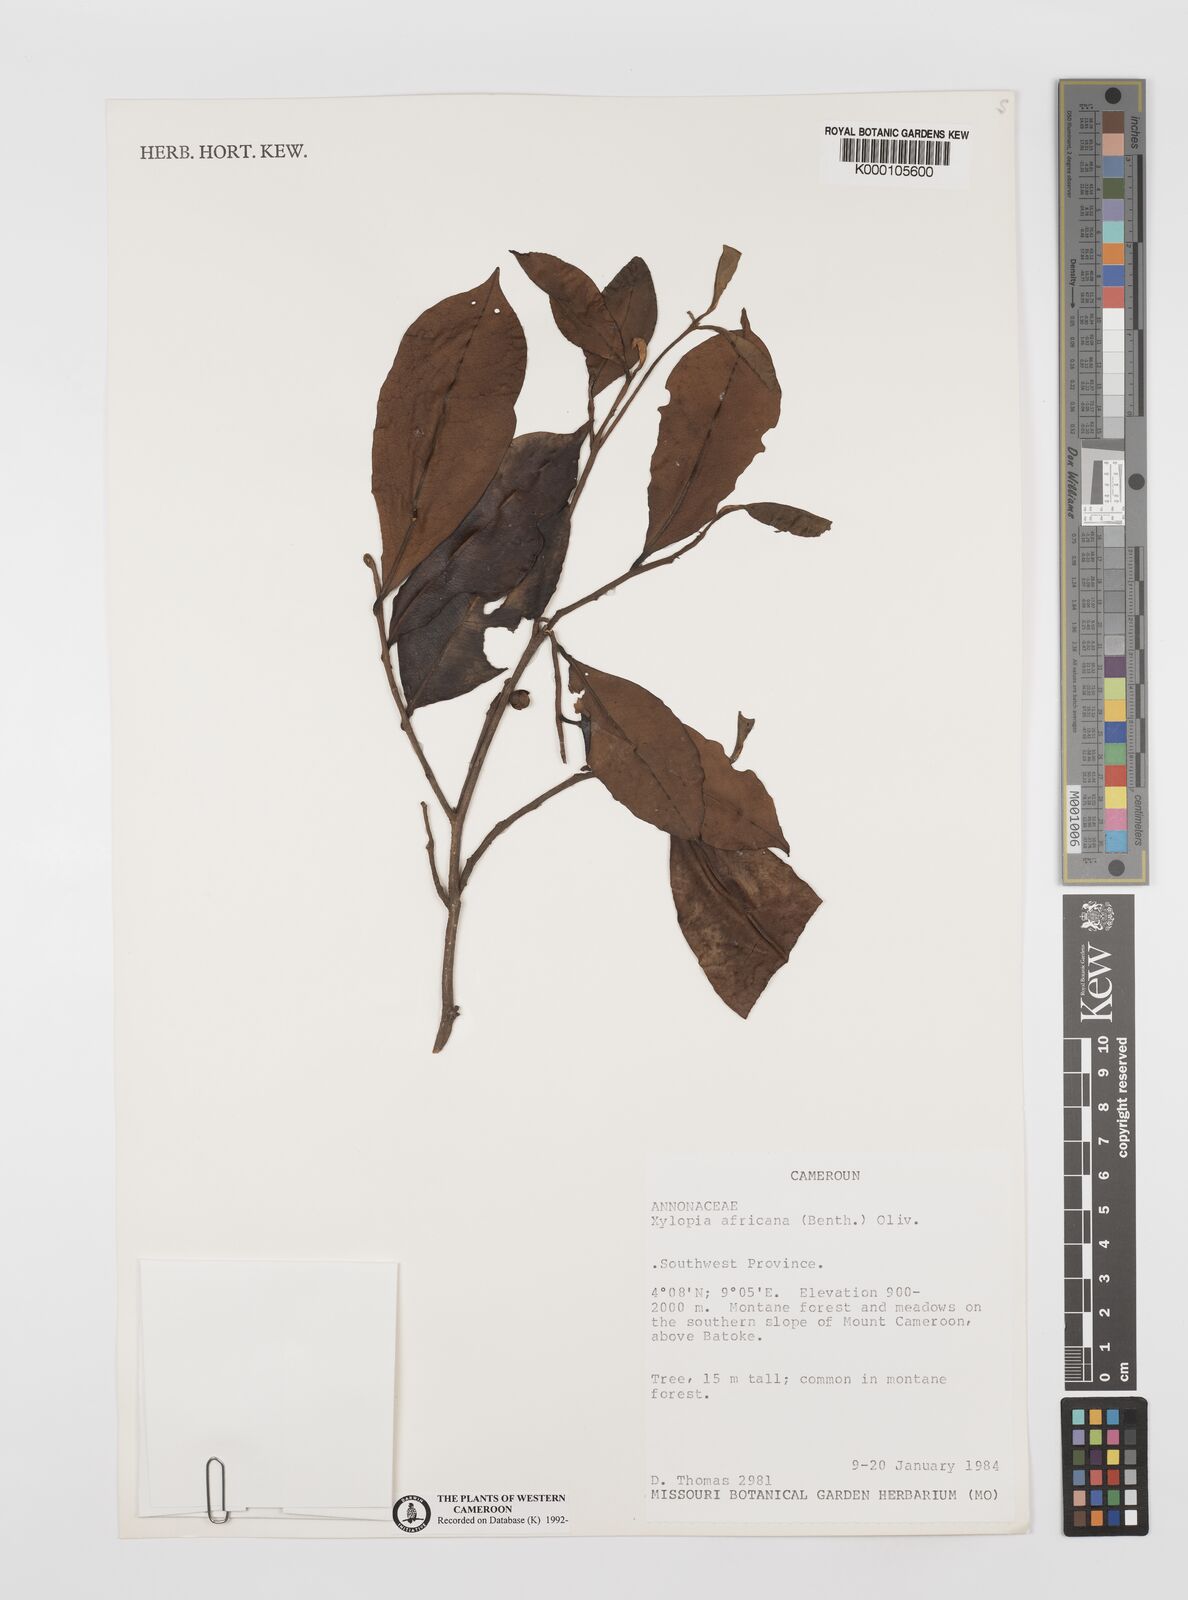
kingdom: Plantae
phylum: Tracheophyta
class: Magnoliopsida
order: Magnoliales
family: Annonaceae
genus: Xylopia
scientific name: Xylopia africana
